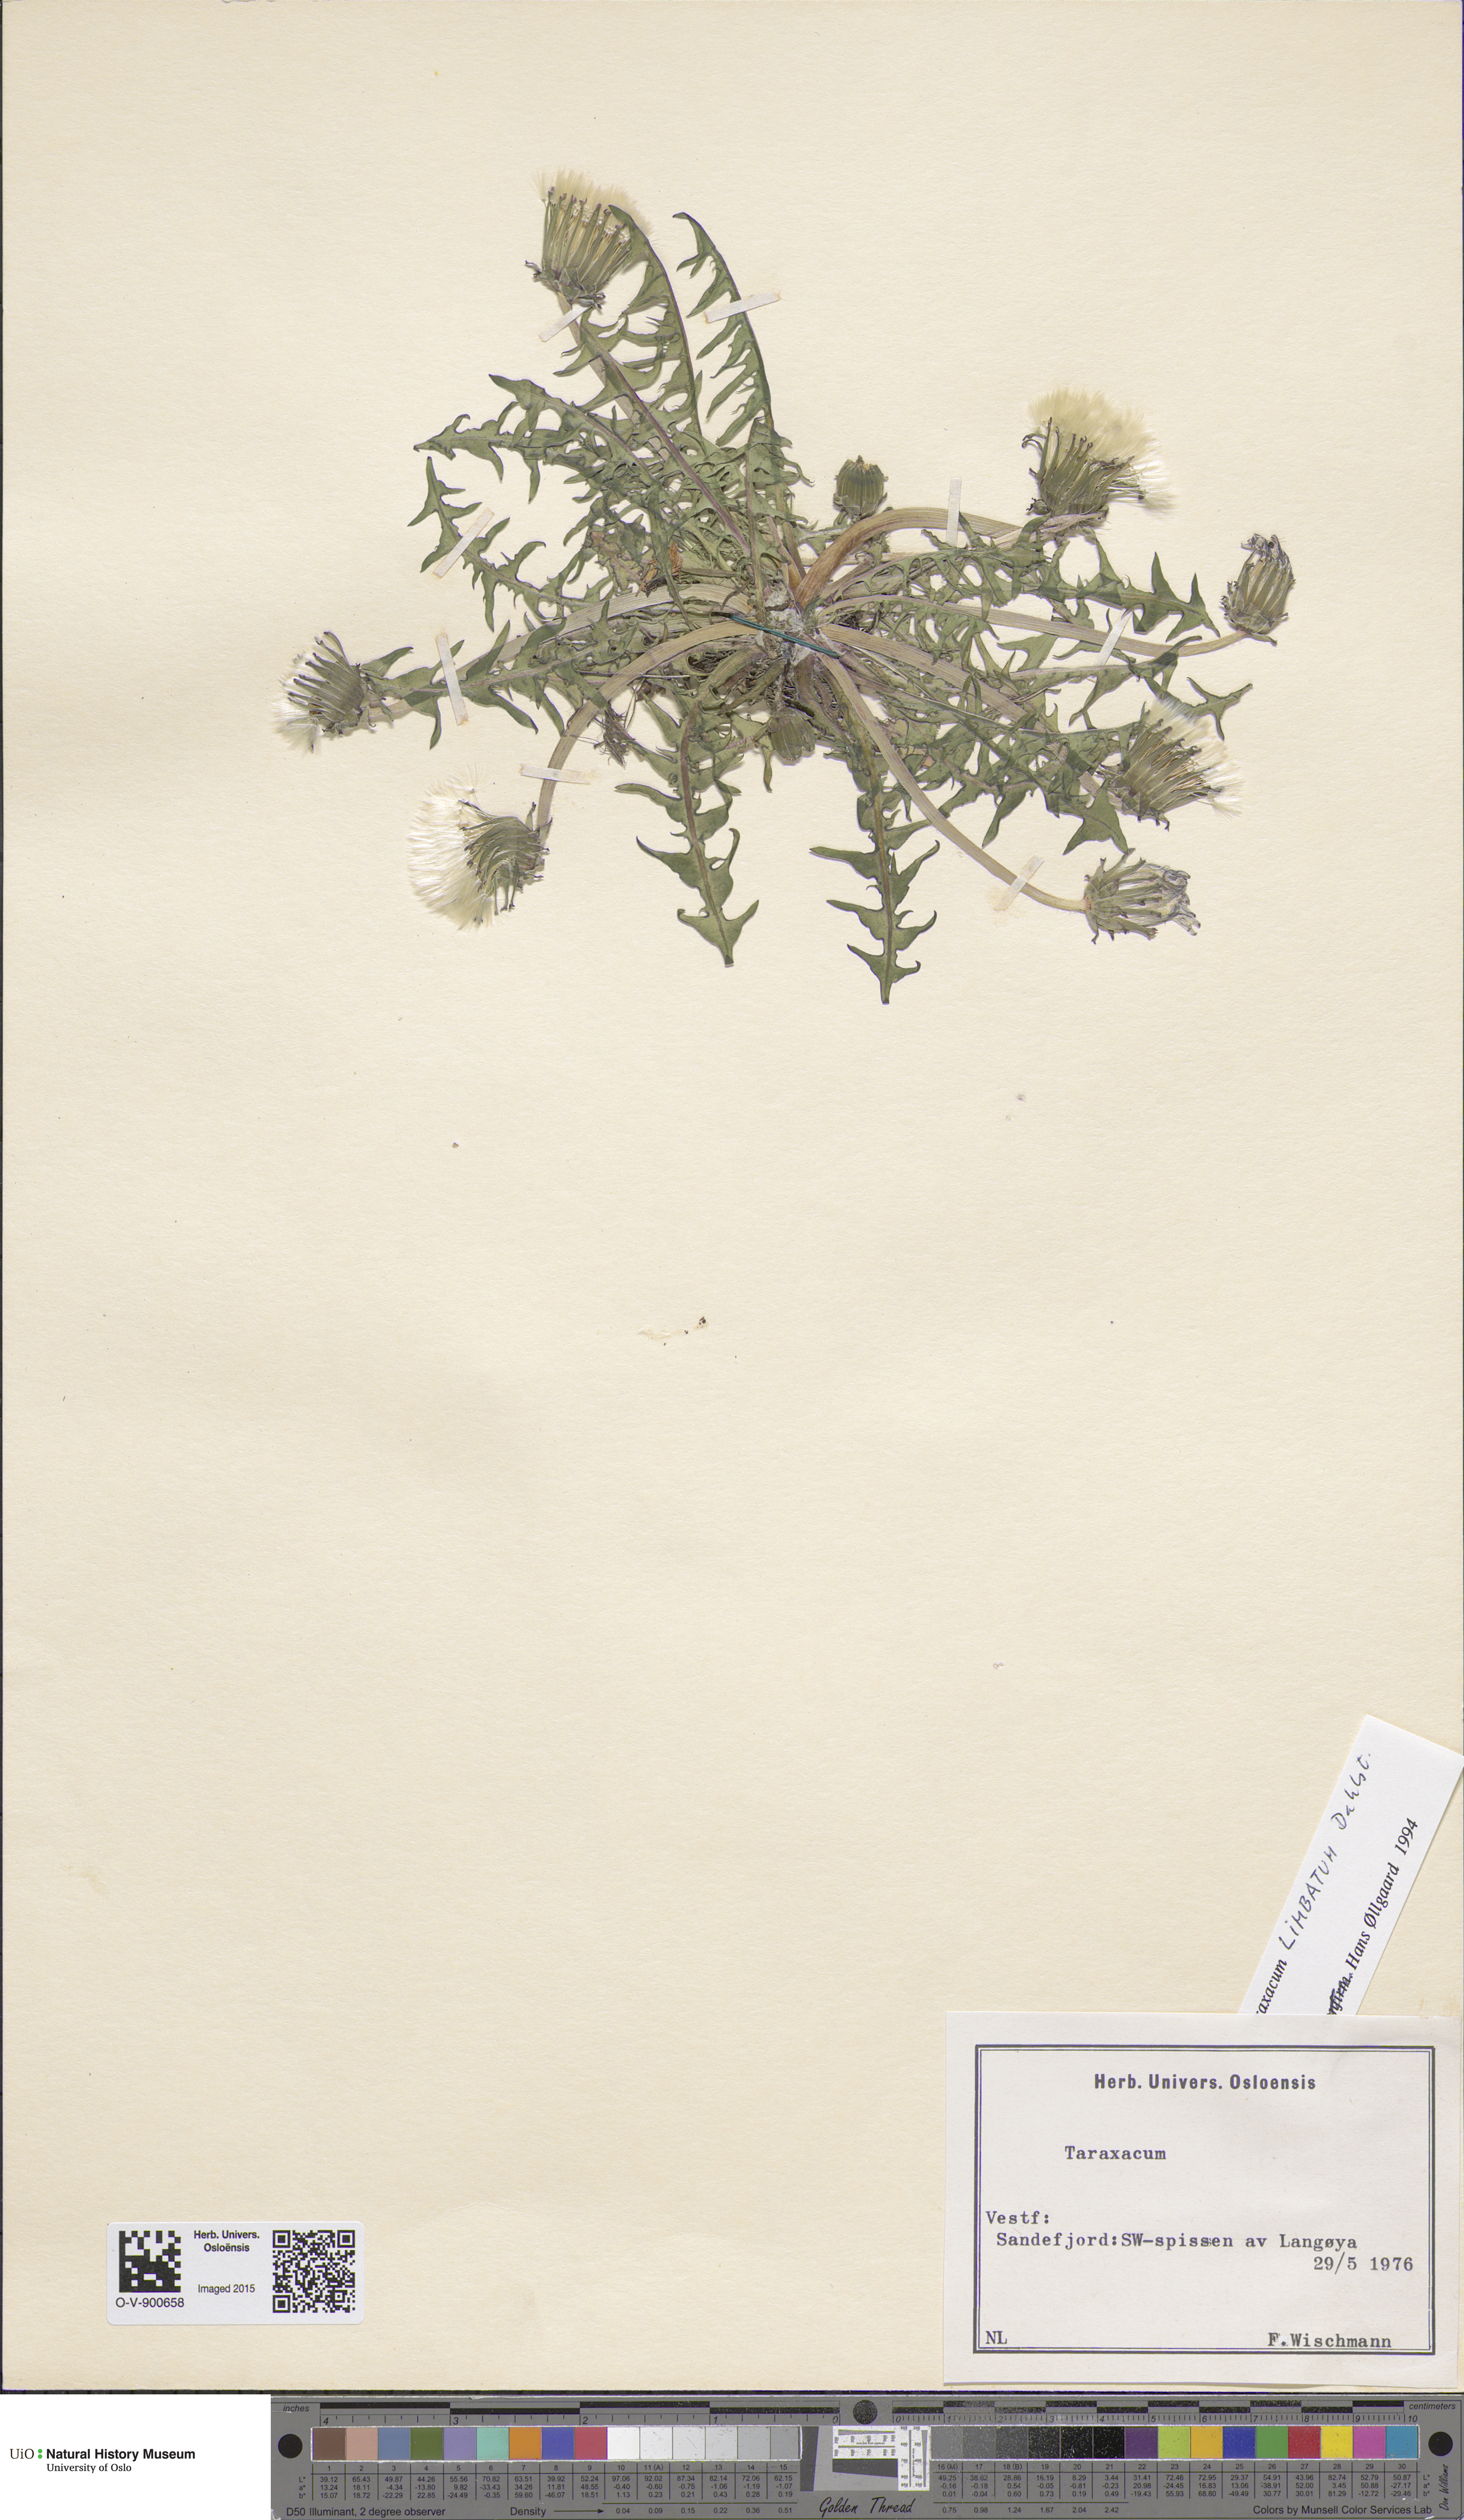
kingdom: Plantae
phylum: Tracheophyta
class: Magnoliopsida
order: Asterales
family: Asteraceae
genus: Taraxacum
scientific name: Taraxacum limbatum
